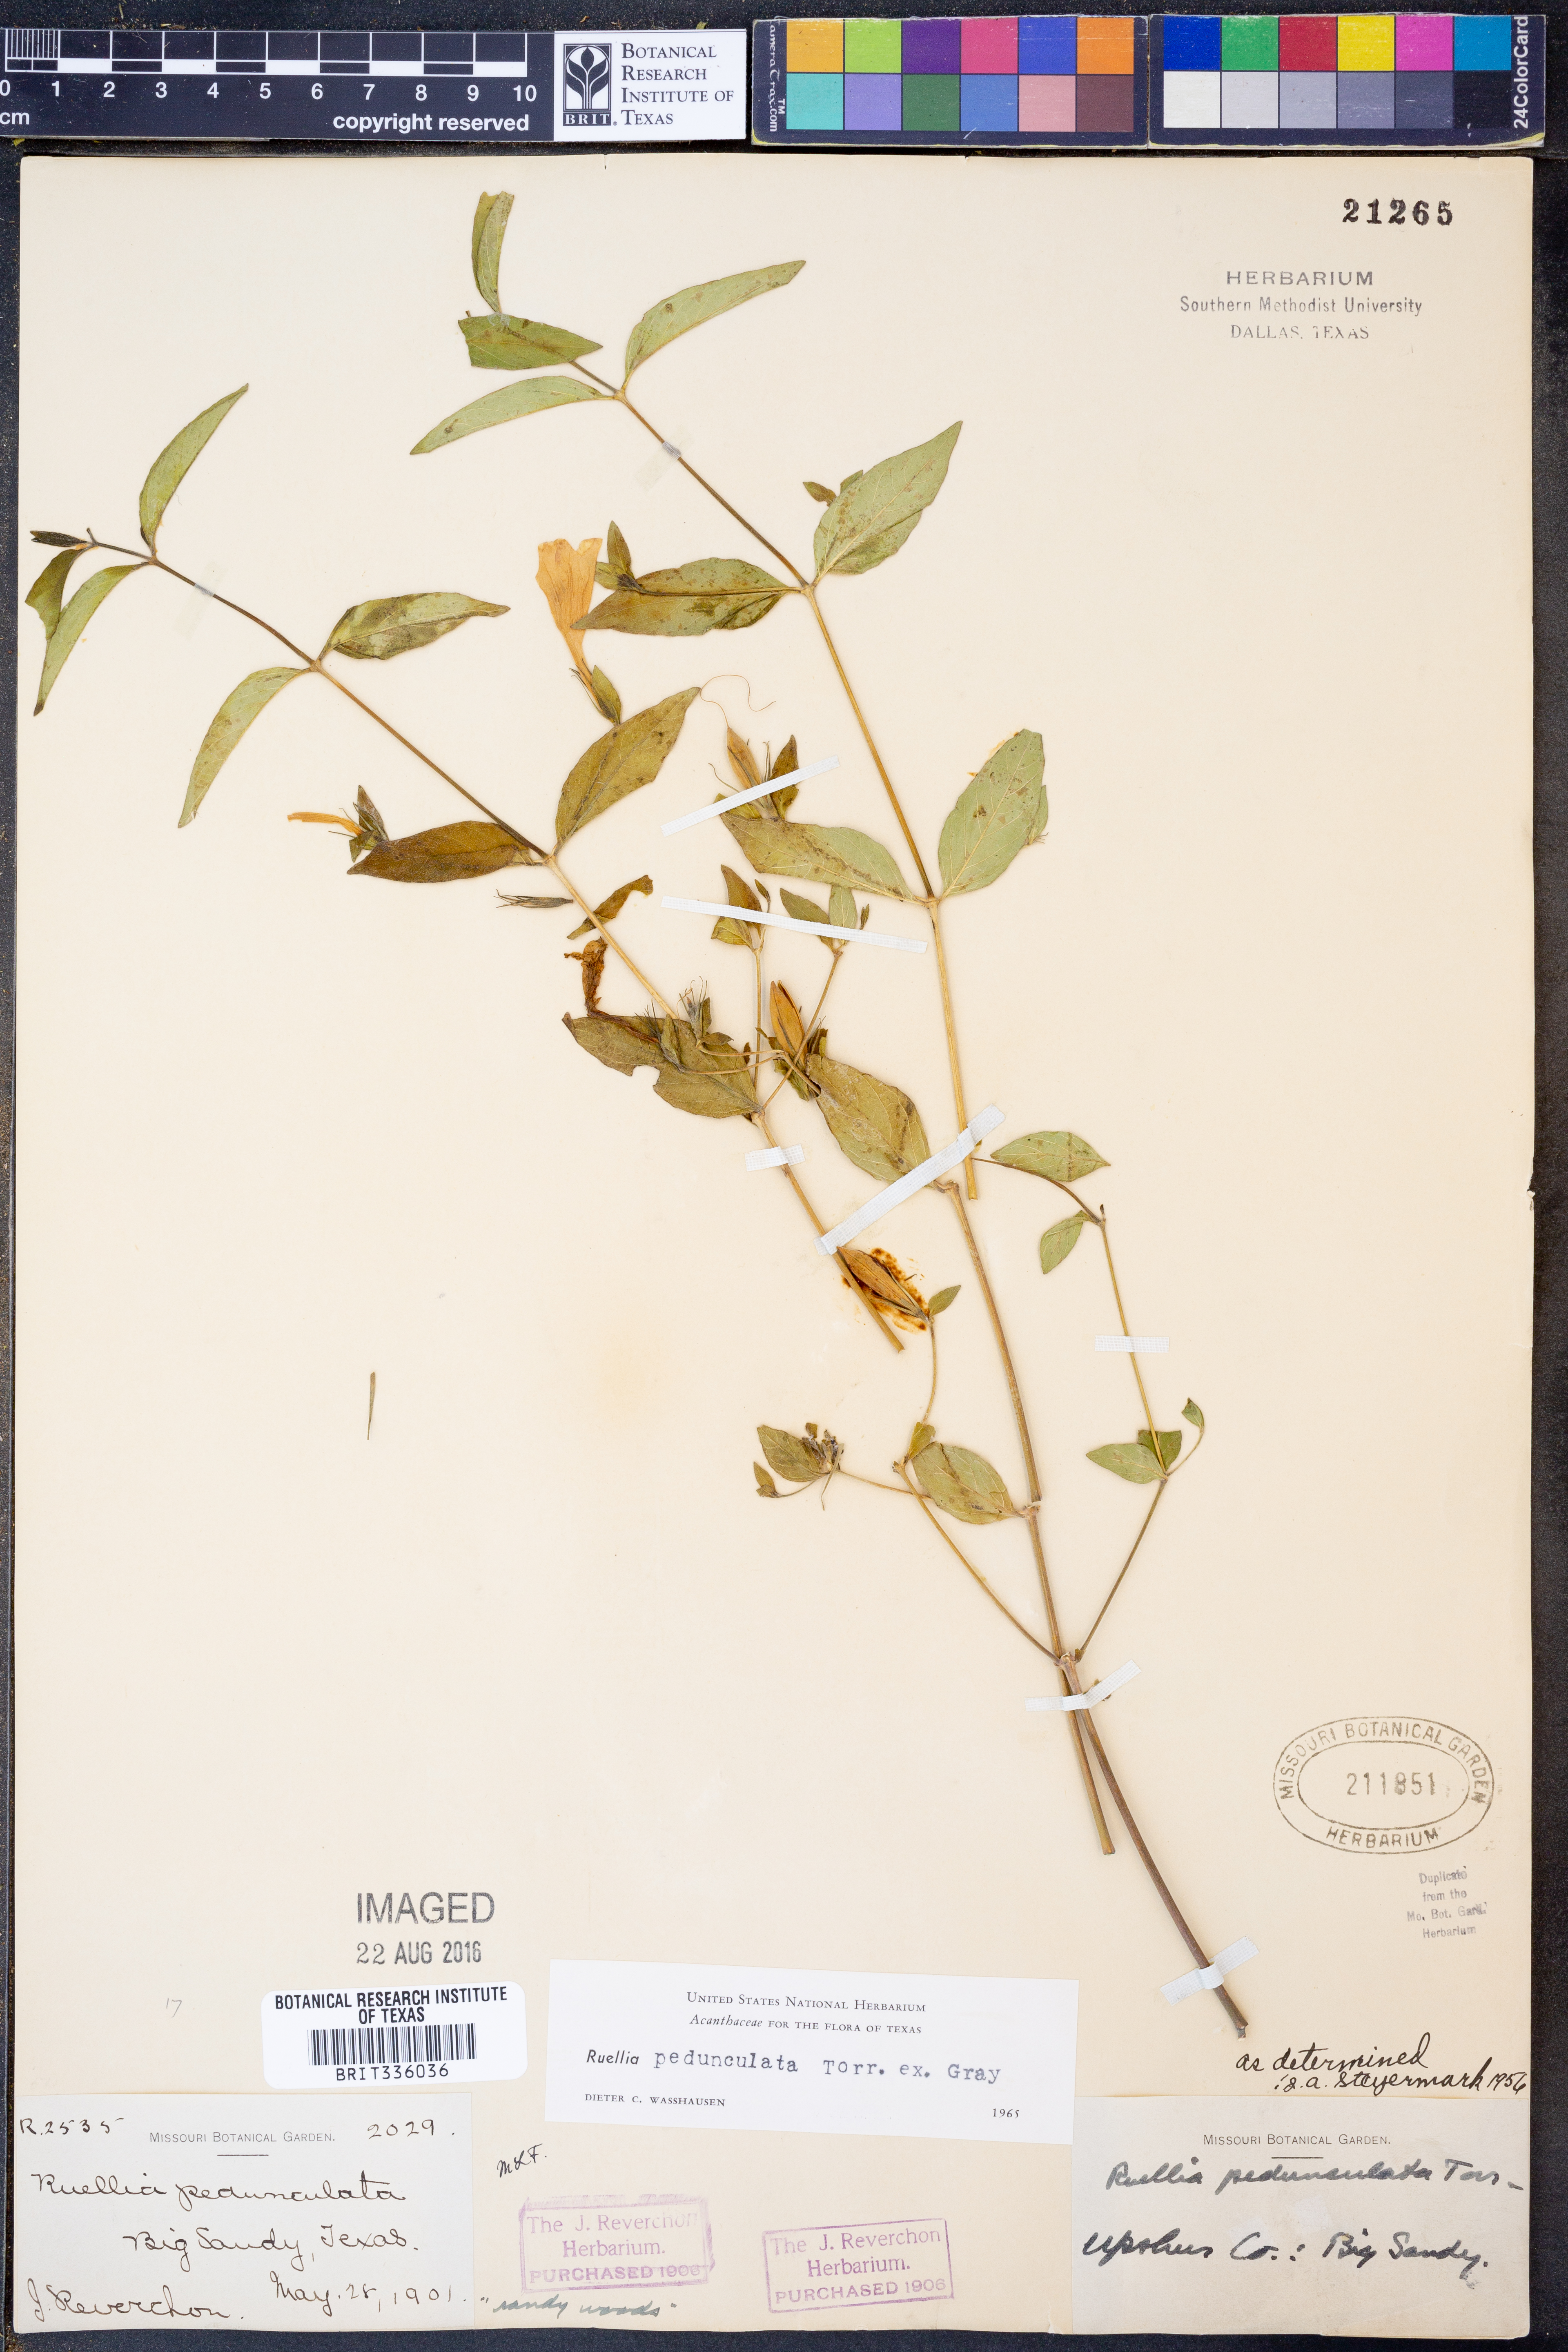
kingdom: Plantae
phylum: Tracheophyta
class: Magnoliopsida
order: Lamiales
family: Acanthaceae
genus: Ruellia
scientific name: Ruellia pedunculata
